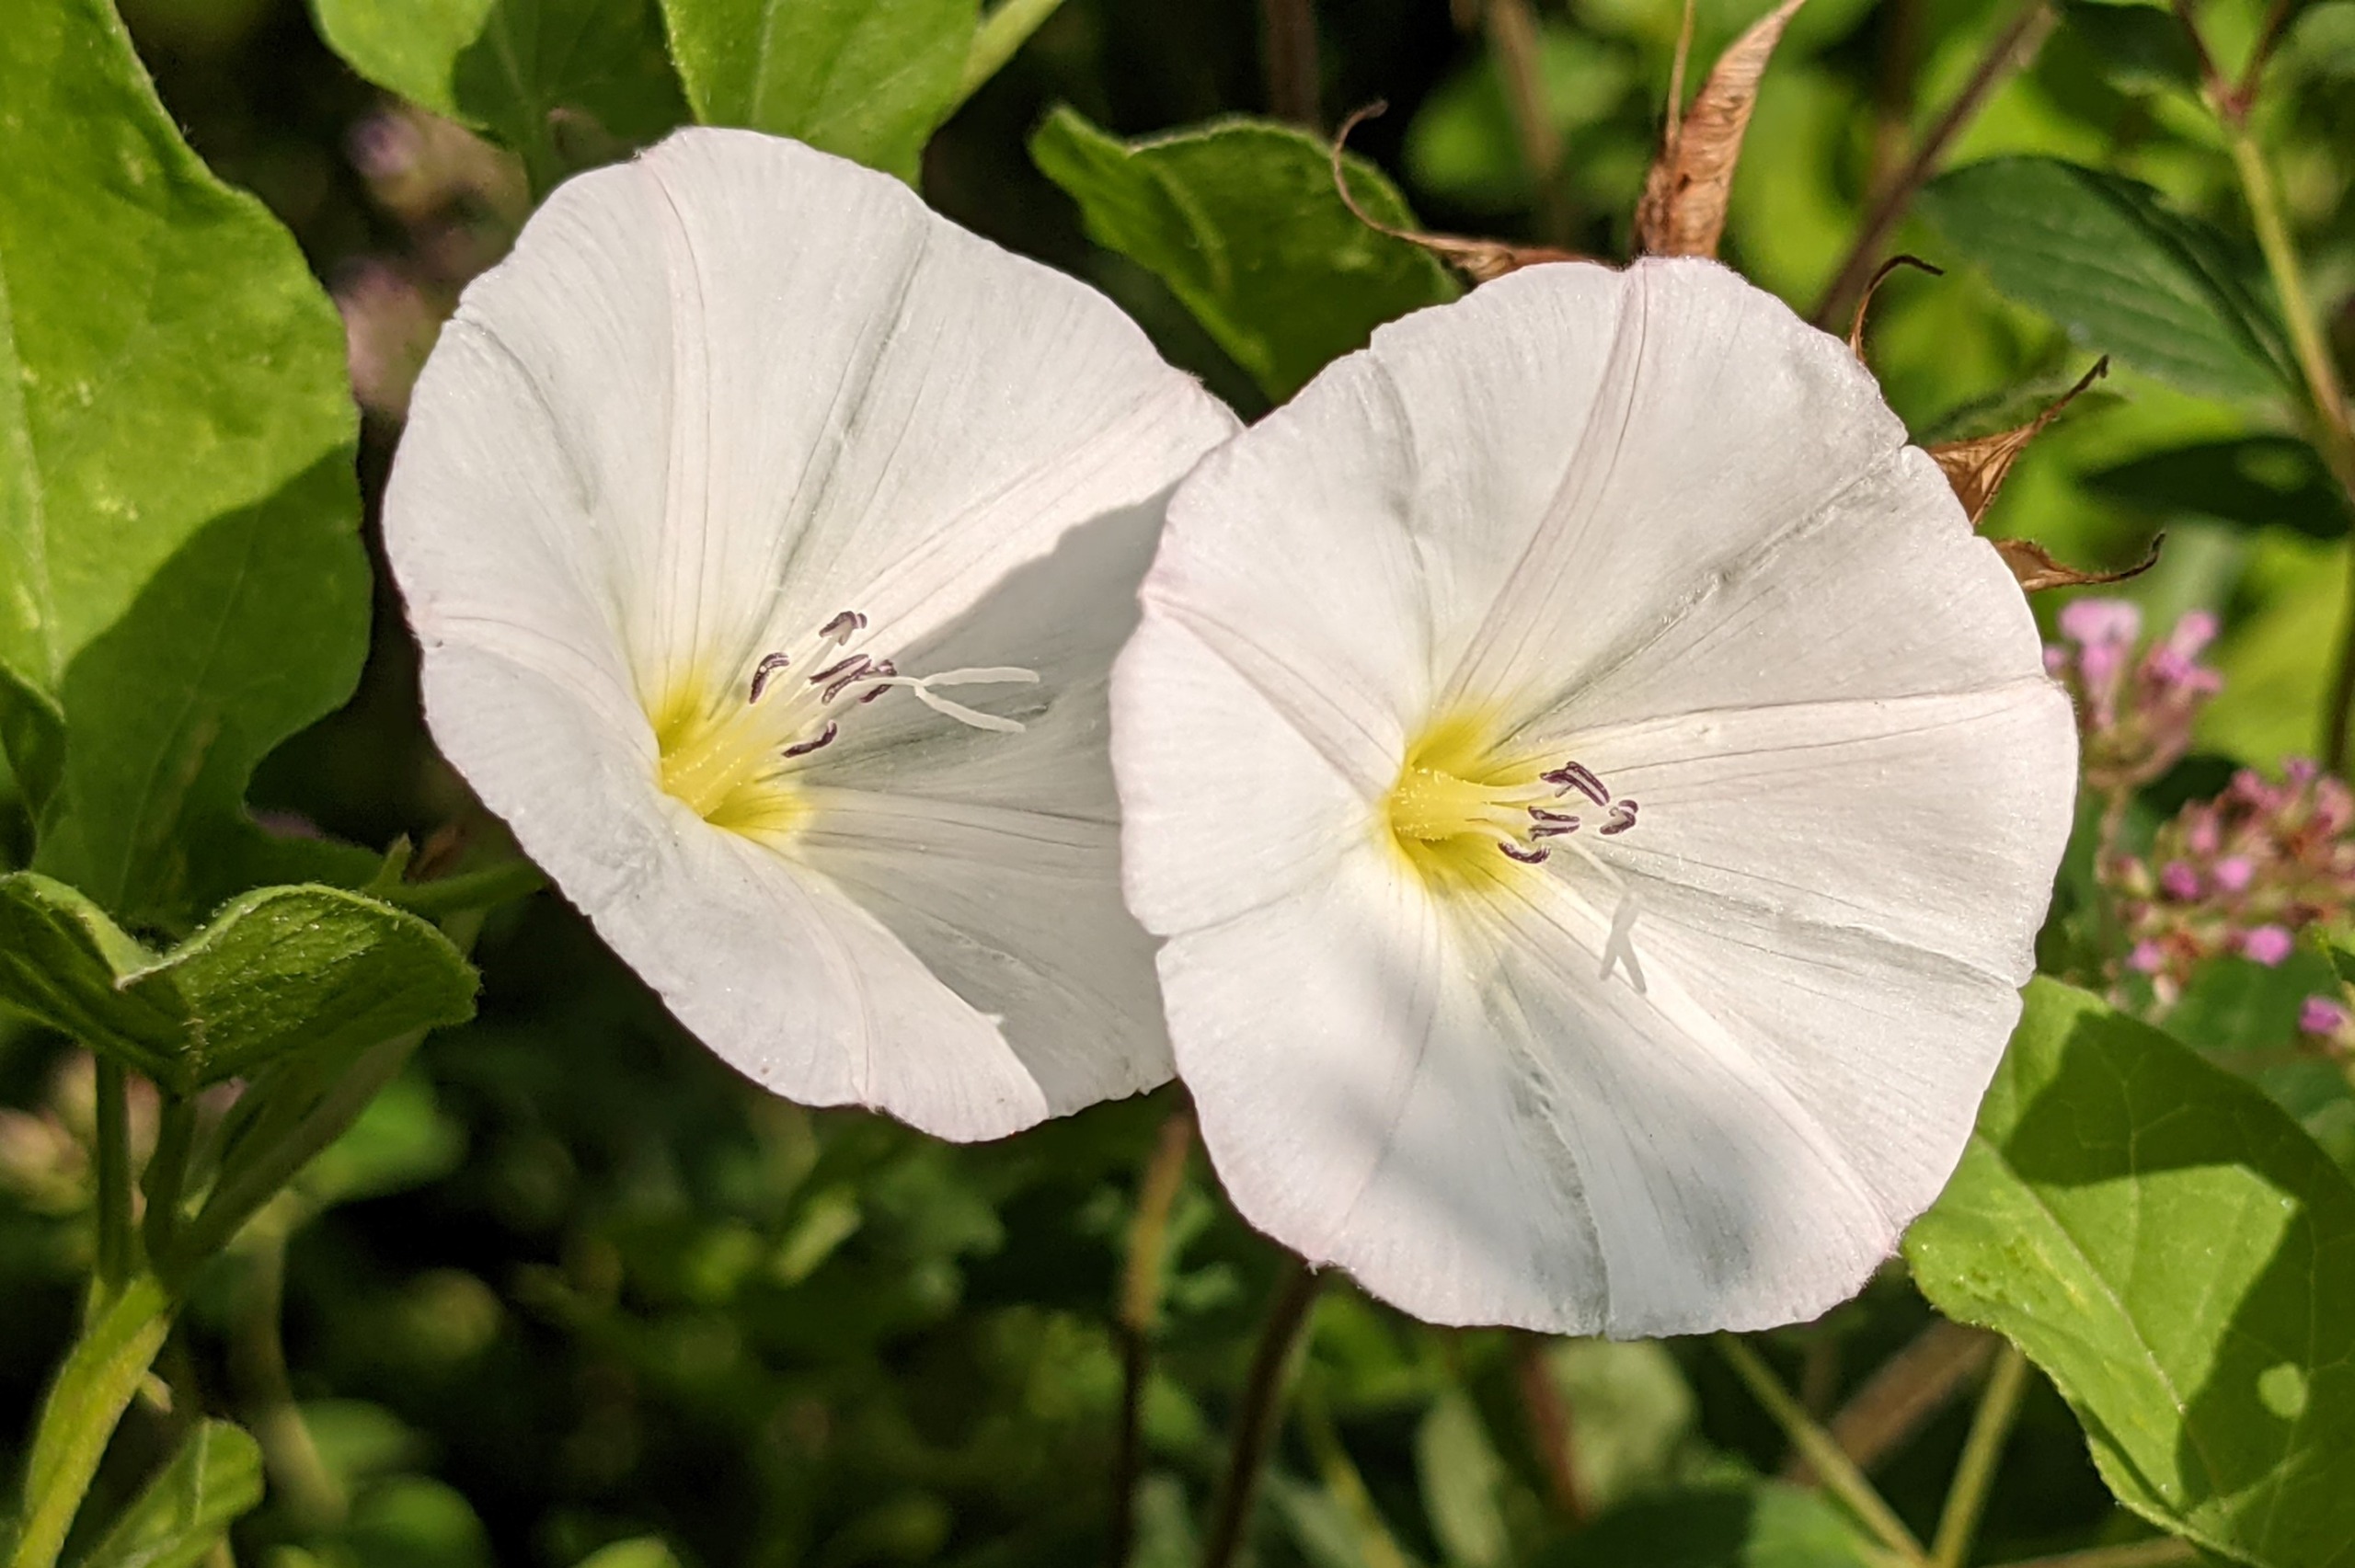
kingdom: Plantae
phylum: Tracheophyta
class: Magnoliopsida
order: Solanales
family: Convolvulaceae
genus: Convolvulus
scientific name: Convolvulus arvensis
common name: Ager-snerle
